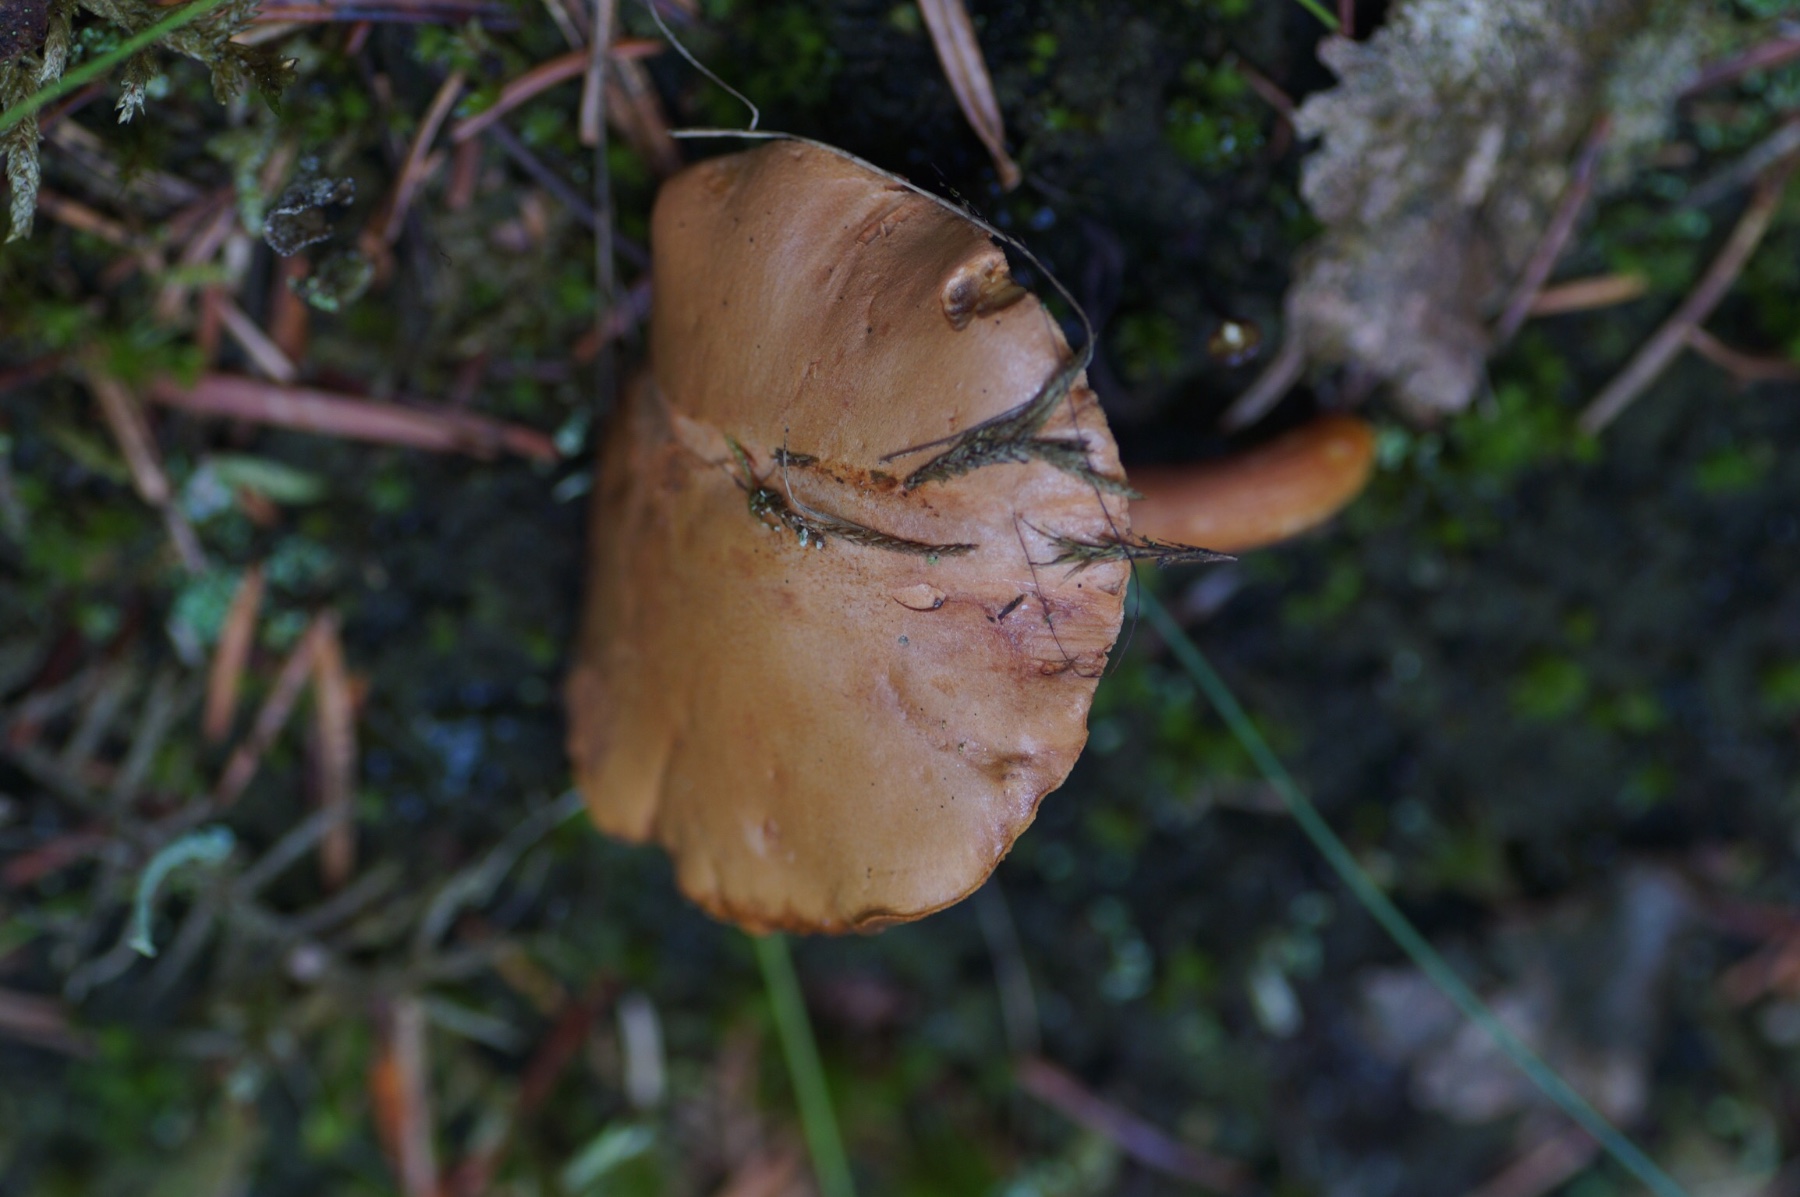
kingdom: Fungi
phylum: Basidiomycota
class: Agaricomycetes
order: Boletales
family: Boletaceae
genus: Chalciporus
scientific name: Chalciporus piperatus
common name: peberrørhat
